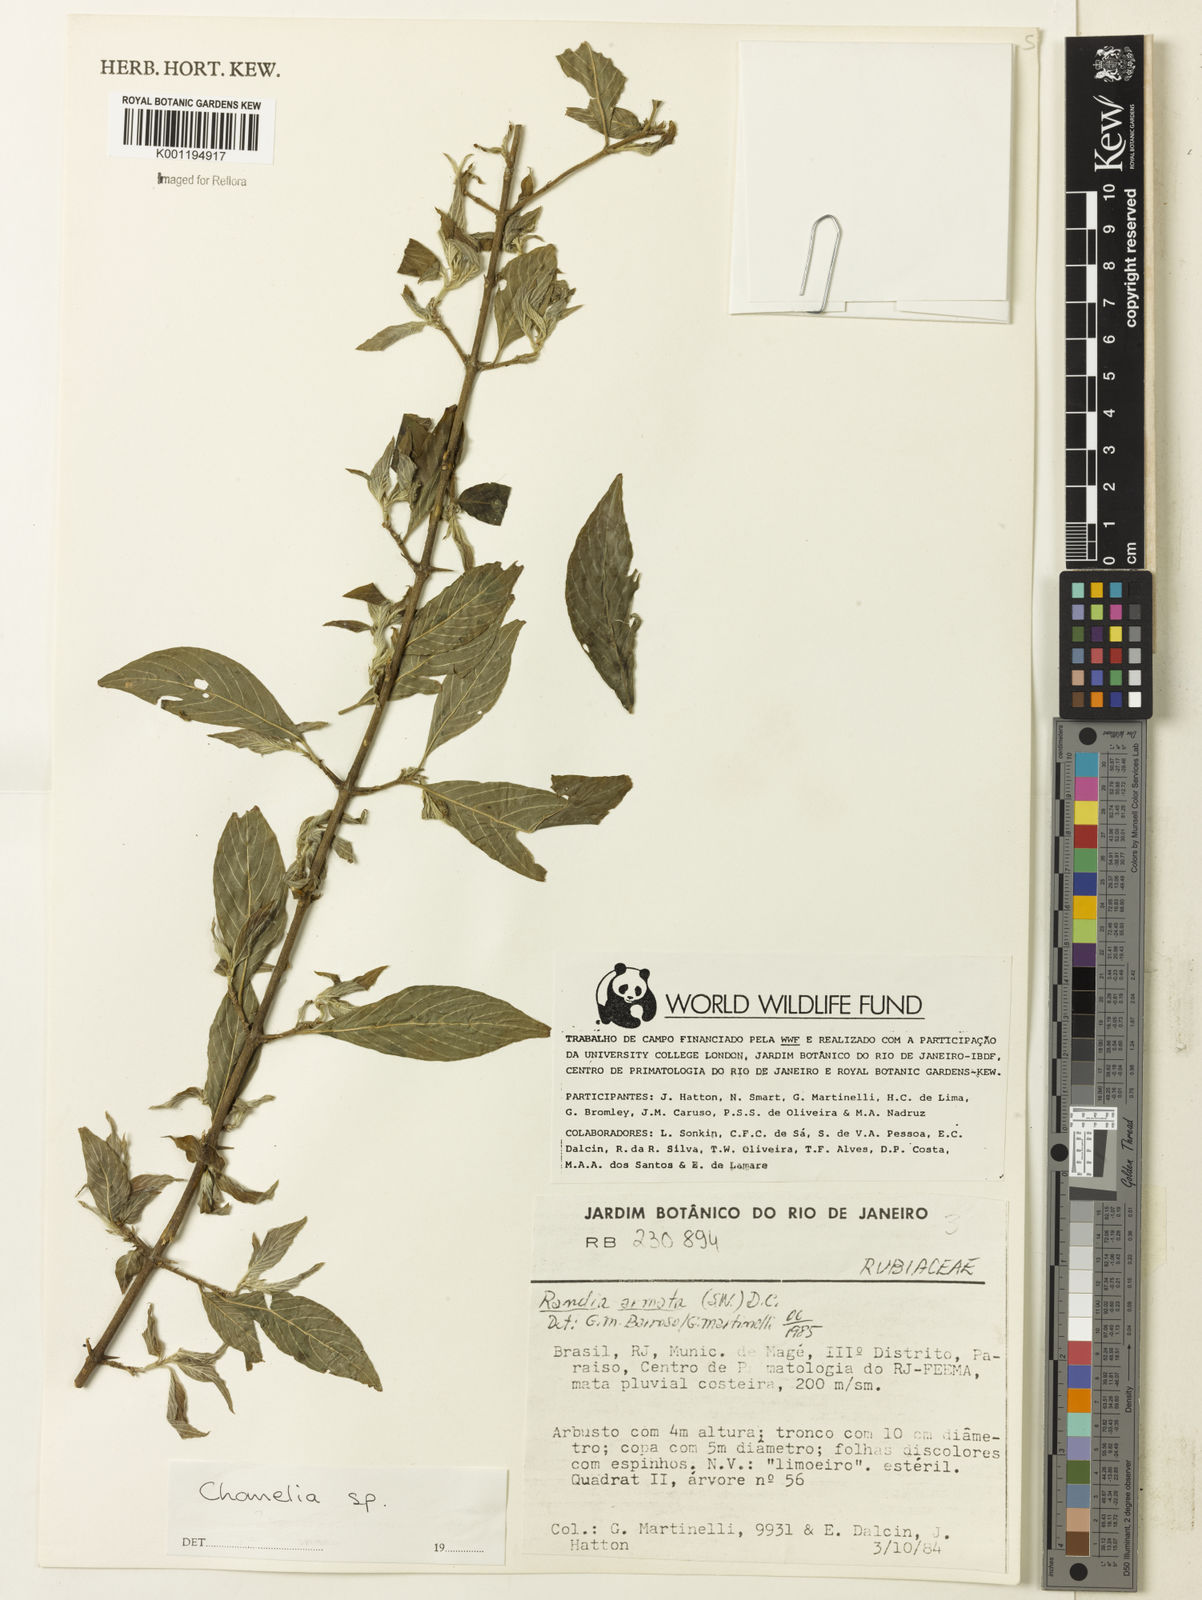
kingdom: Plantae
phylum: Tracheophyta
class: Magnoliopsida
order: Gentianales
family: Rubiaceae
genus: Chomelia
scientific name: Chomelia
